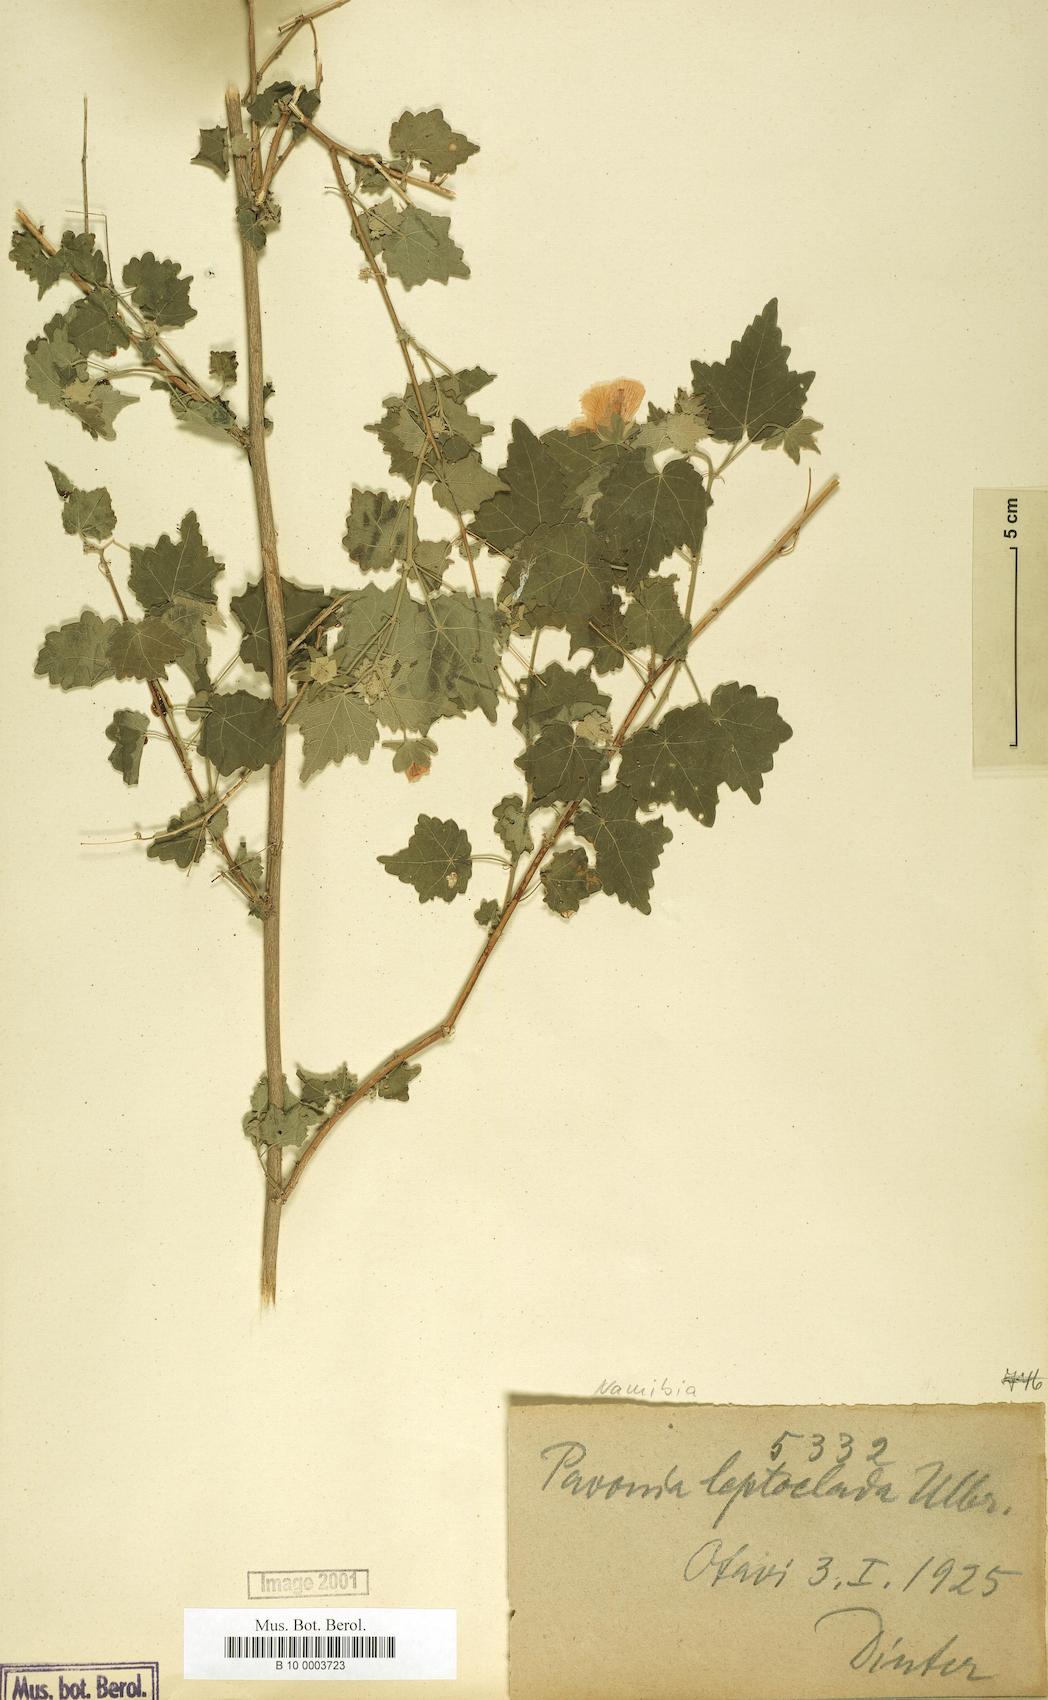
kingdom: Plantae
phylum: Tracheophyta
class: Magnoliopsida
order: Malvales
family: Malvaceae
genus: Abutilon
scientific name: Abutilon mauritianum
